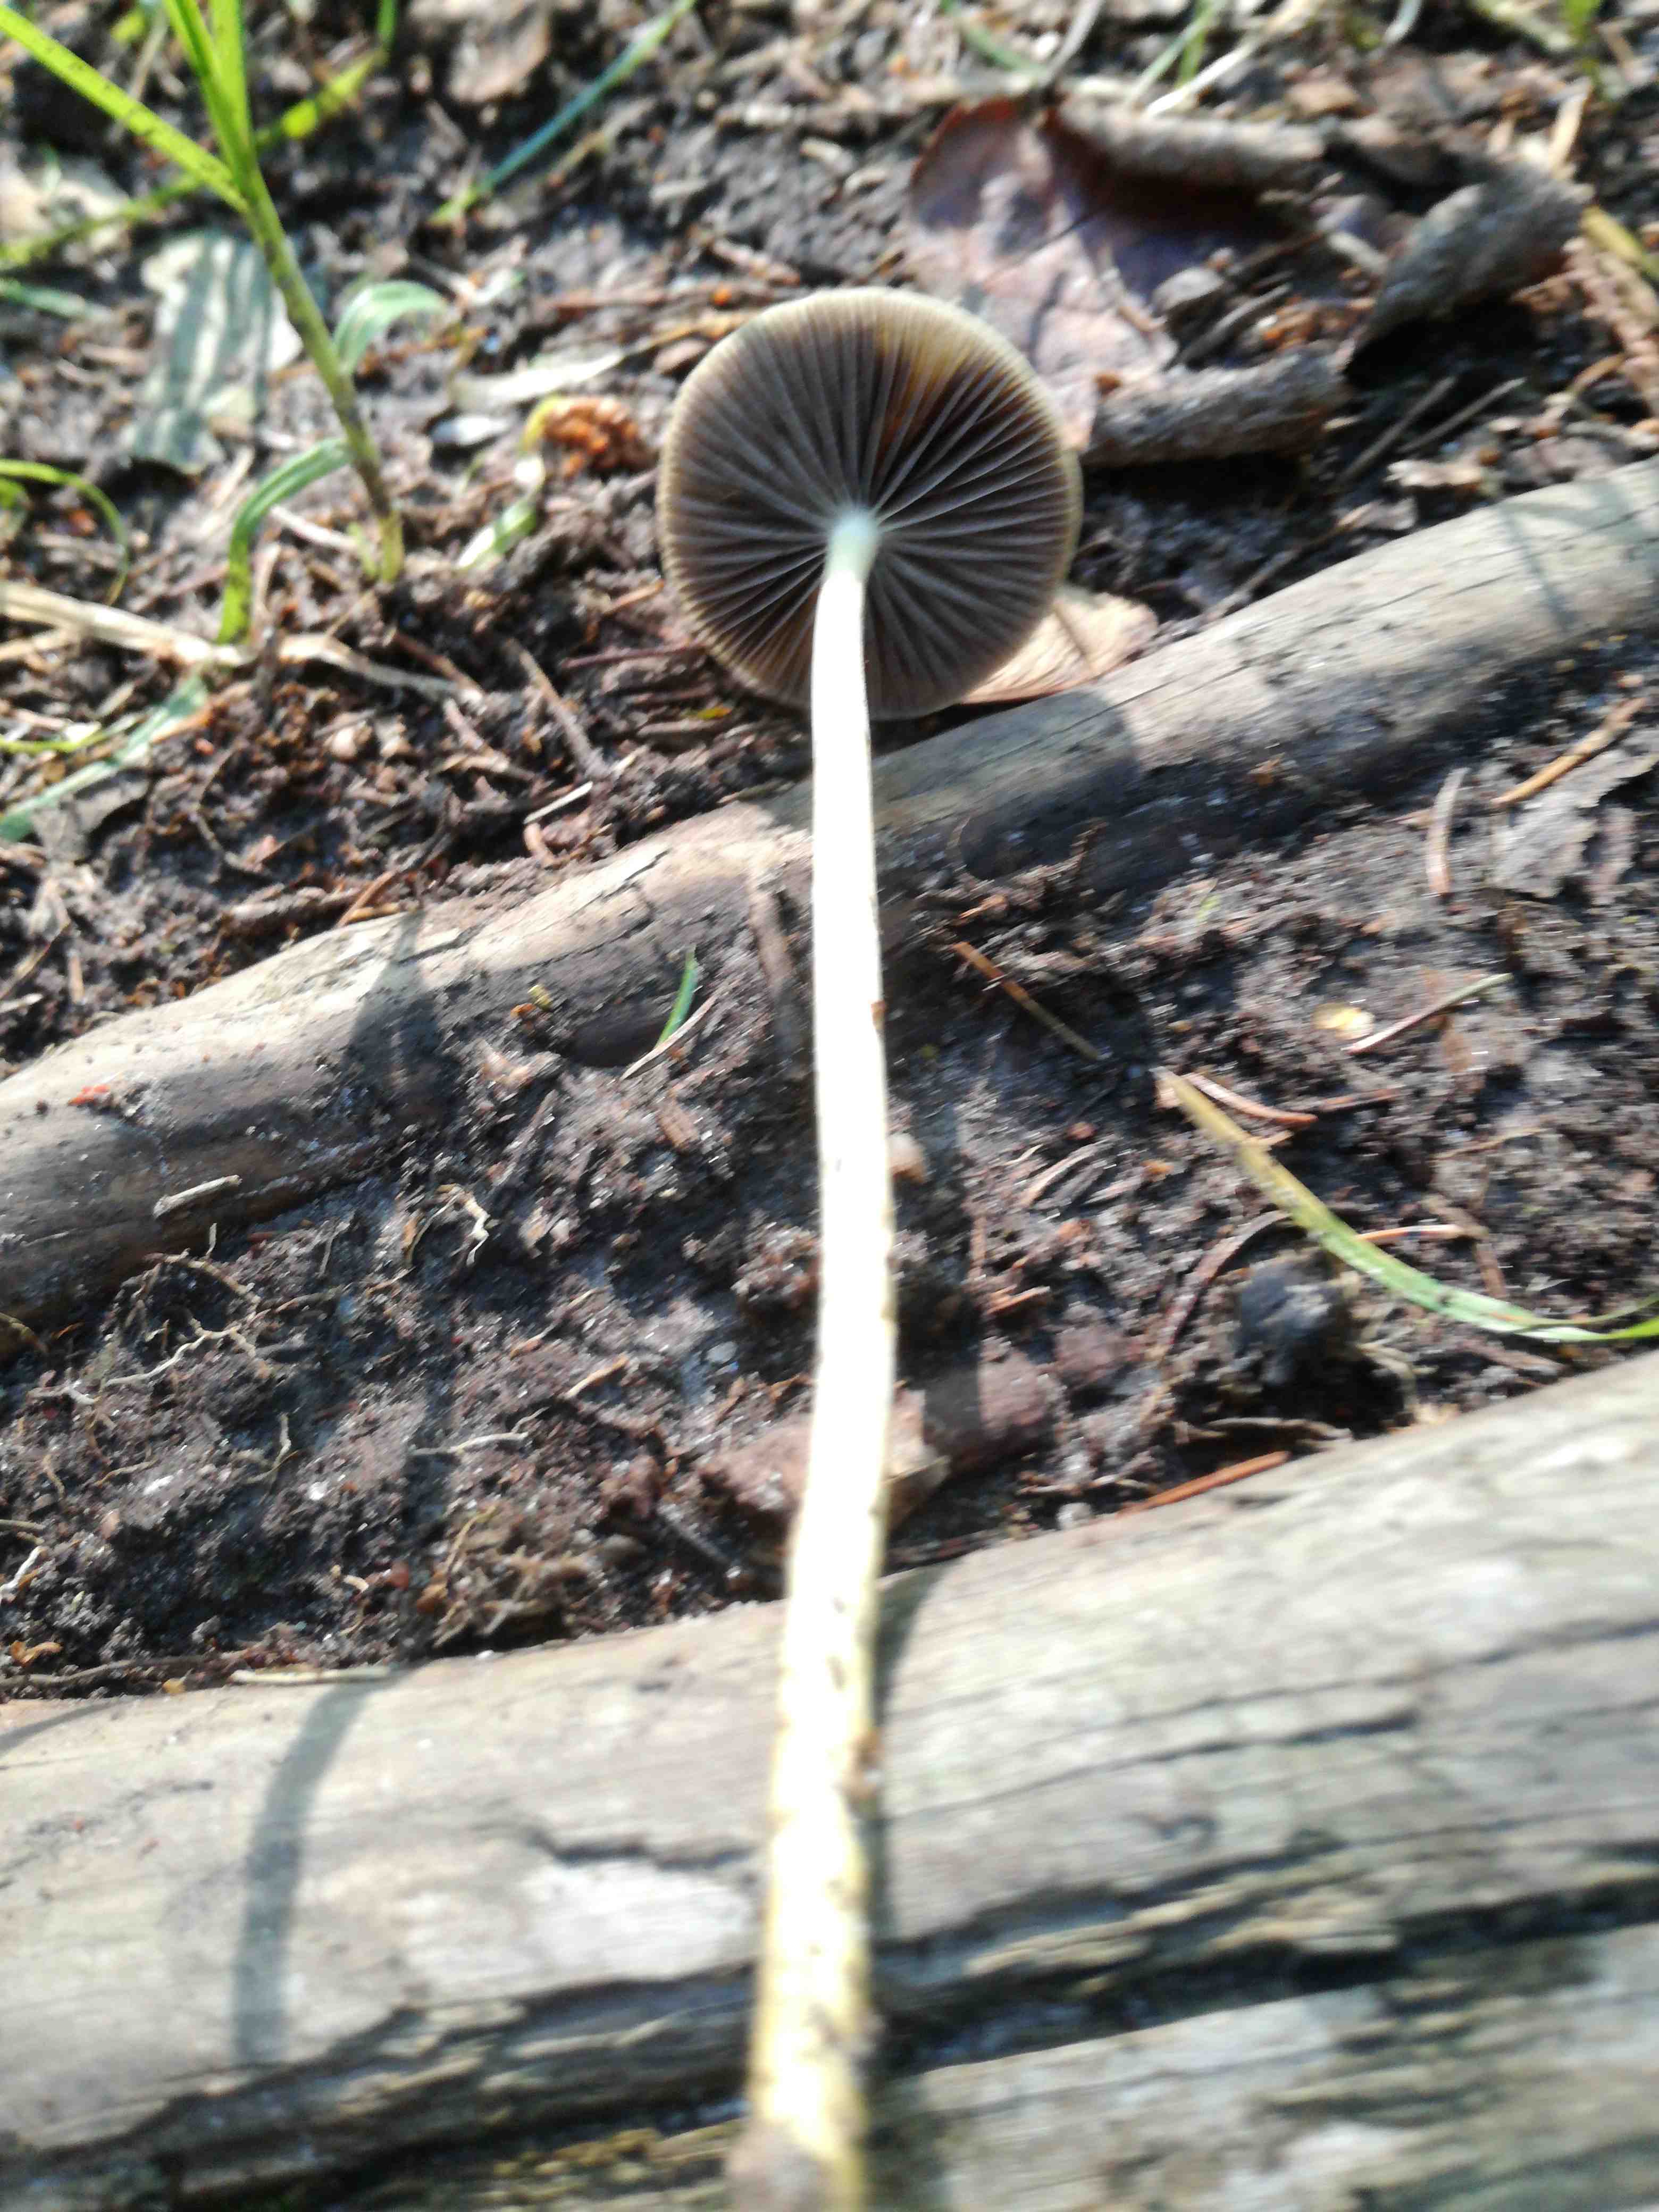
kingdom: Fungi
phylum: Basidiomycota
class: Agaricomycetes
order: Agaricales
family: Strophariaceae
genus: Protostropharia
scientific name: Protostropharia
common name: bredblad
